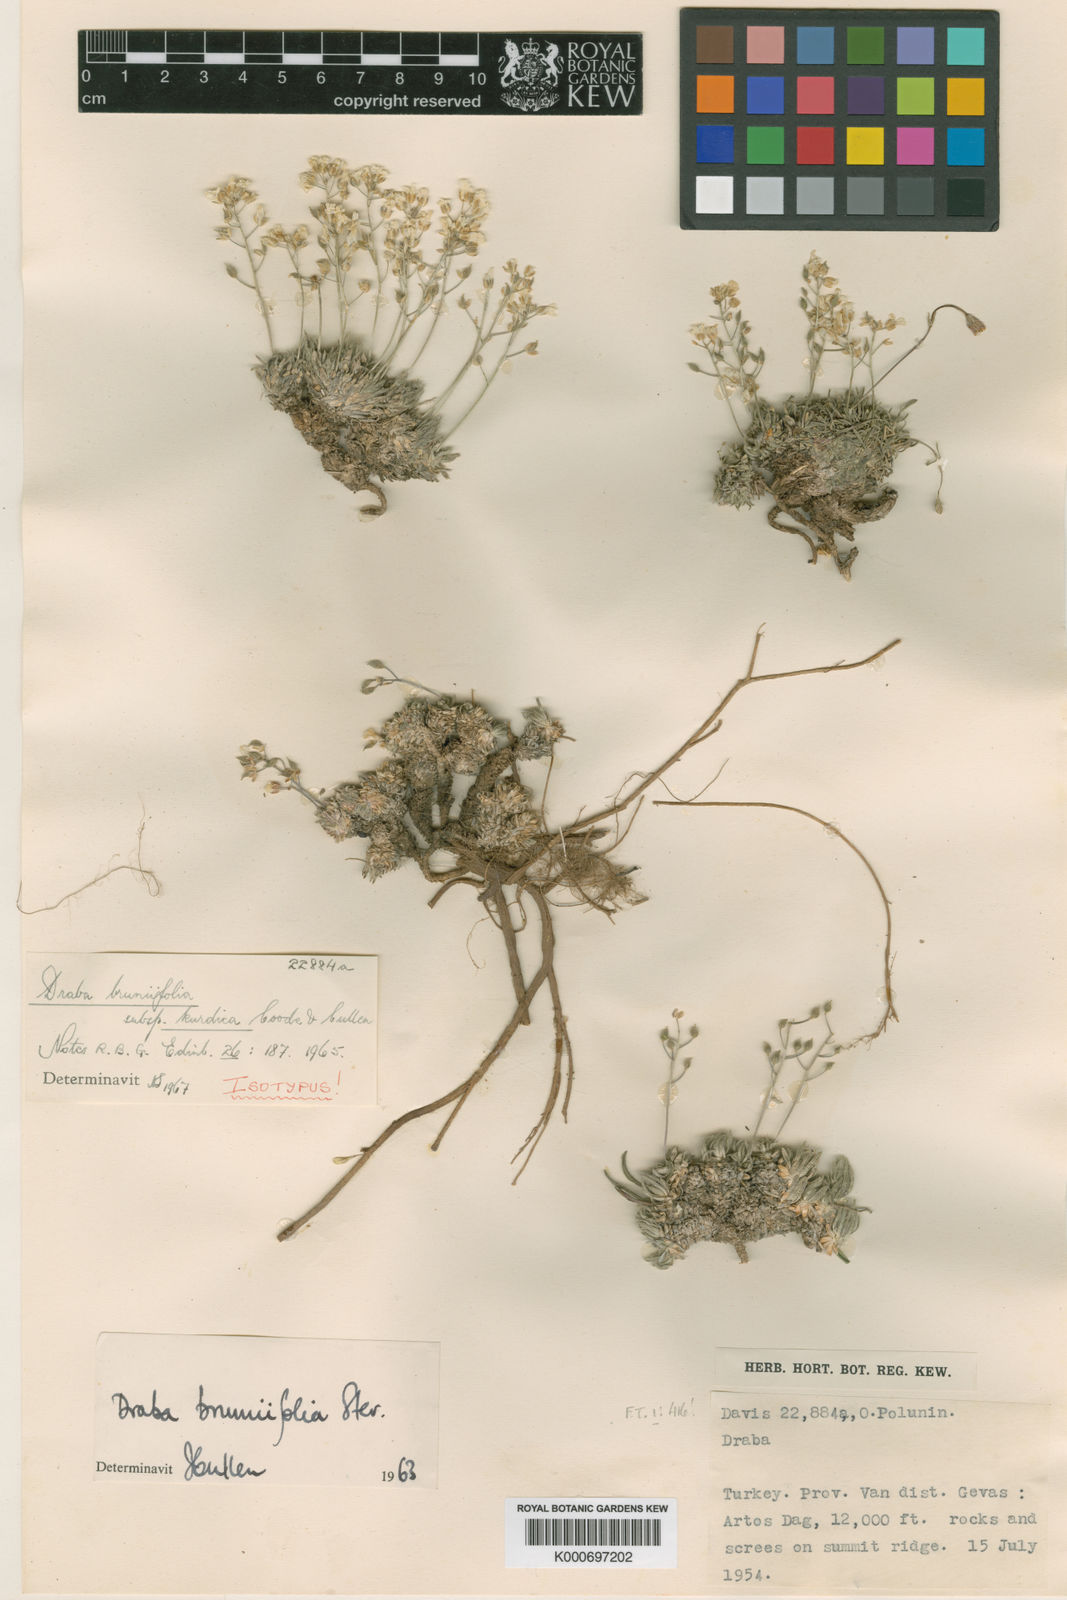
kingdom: Plantae
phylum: Tracheophyta
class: Magnoliopsida
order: Brassicales
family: Brassicaceae
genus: Draba
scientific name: Draba bruniifolia
